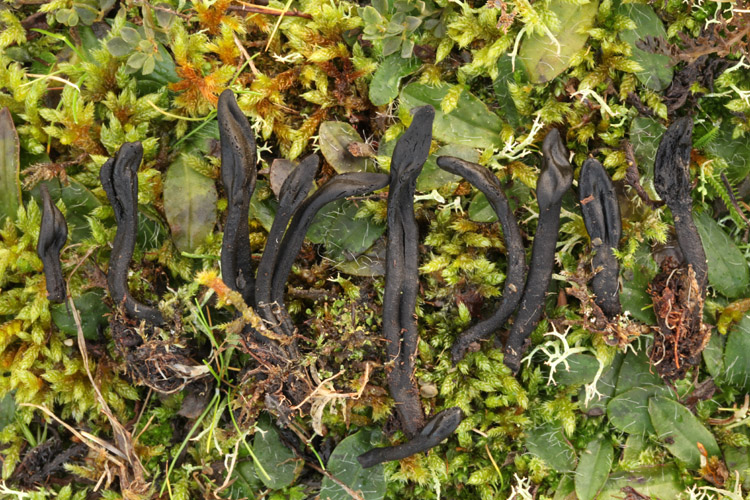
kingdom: Fungi
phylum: Ascomycota
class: Geoglossomycetes
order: Geoglossales
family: Geoglossaceae
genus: Trichoglossum
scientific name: Trichoglossum hirsutum
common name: håret jordtunge
